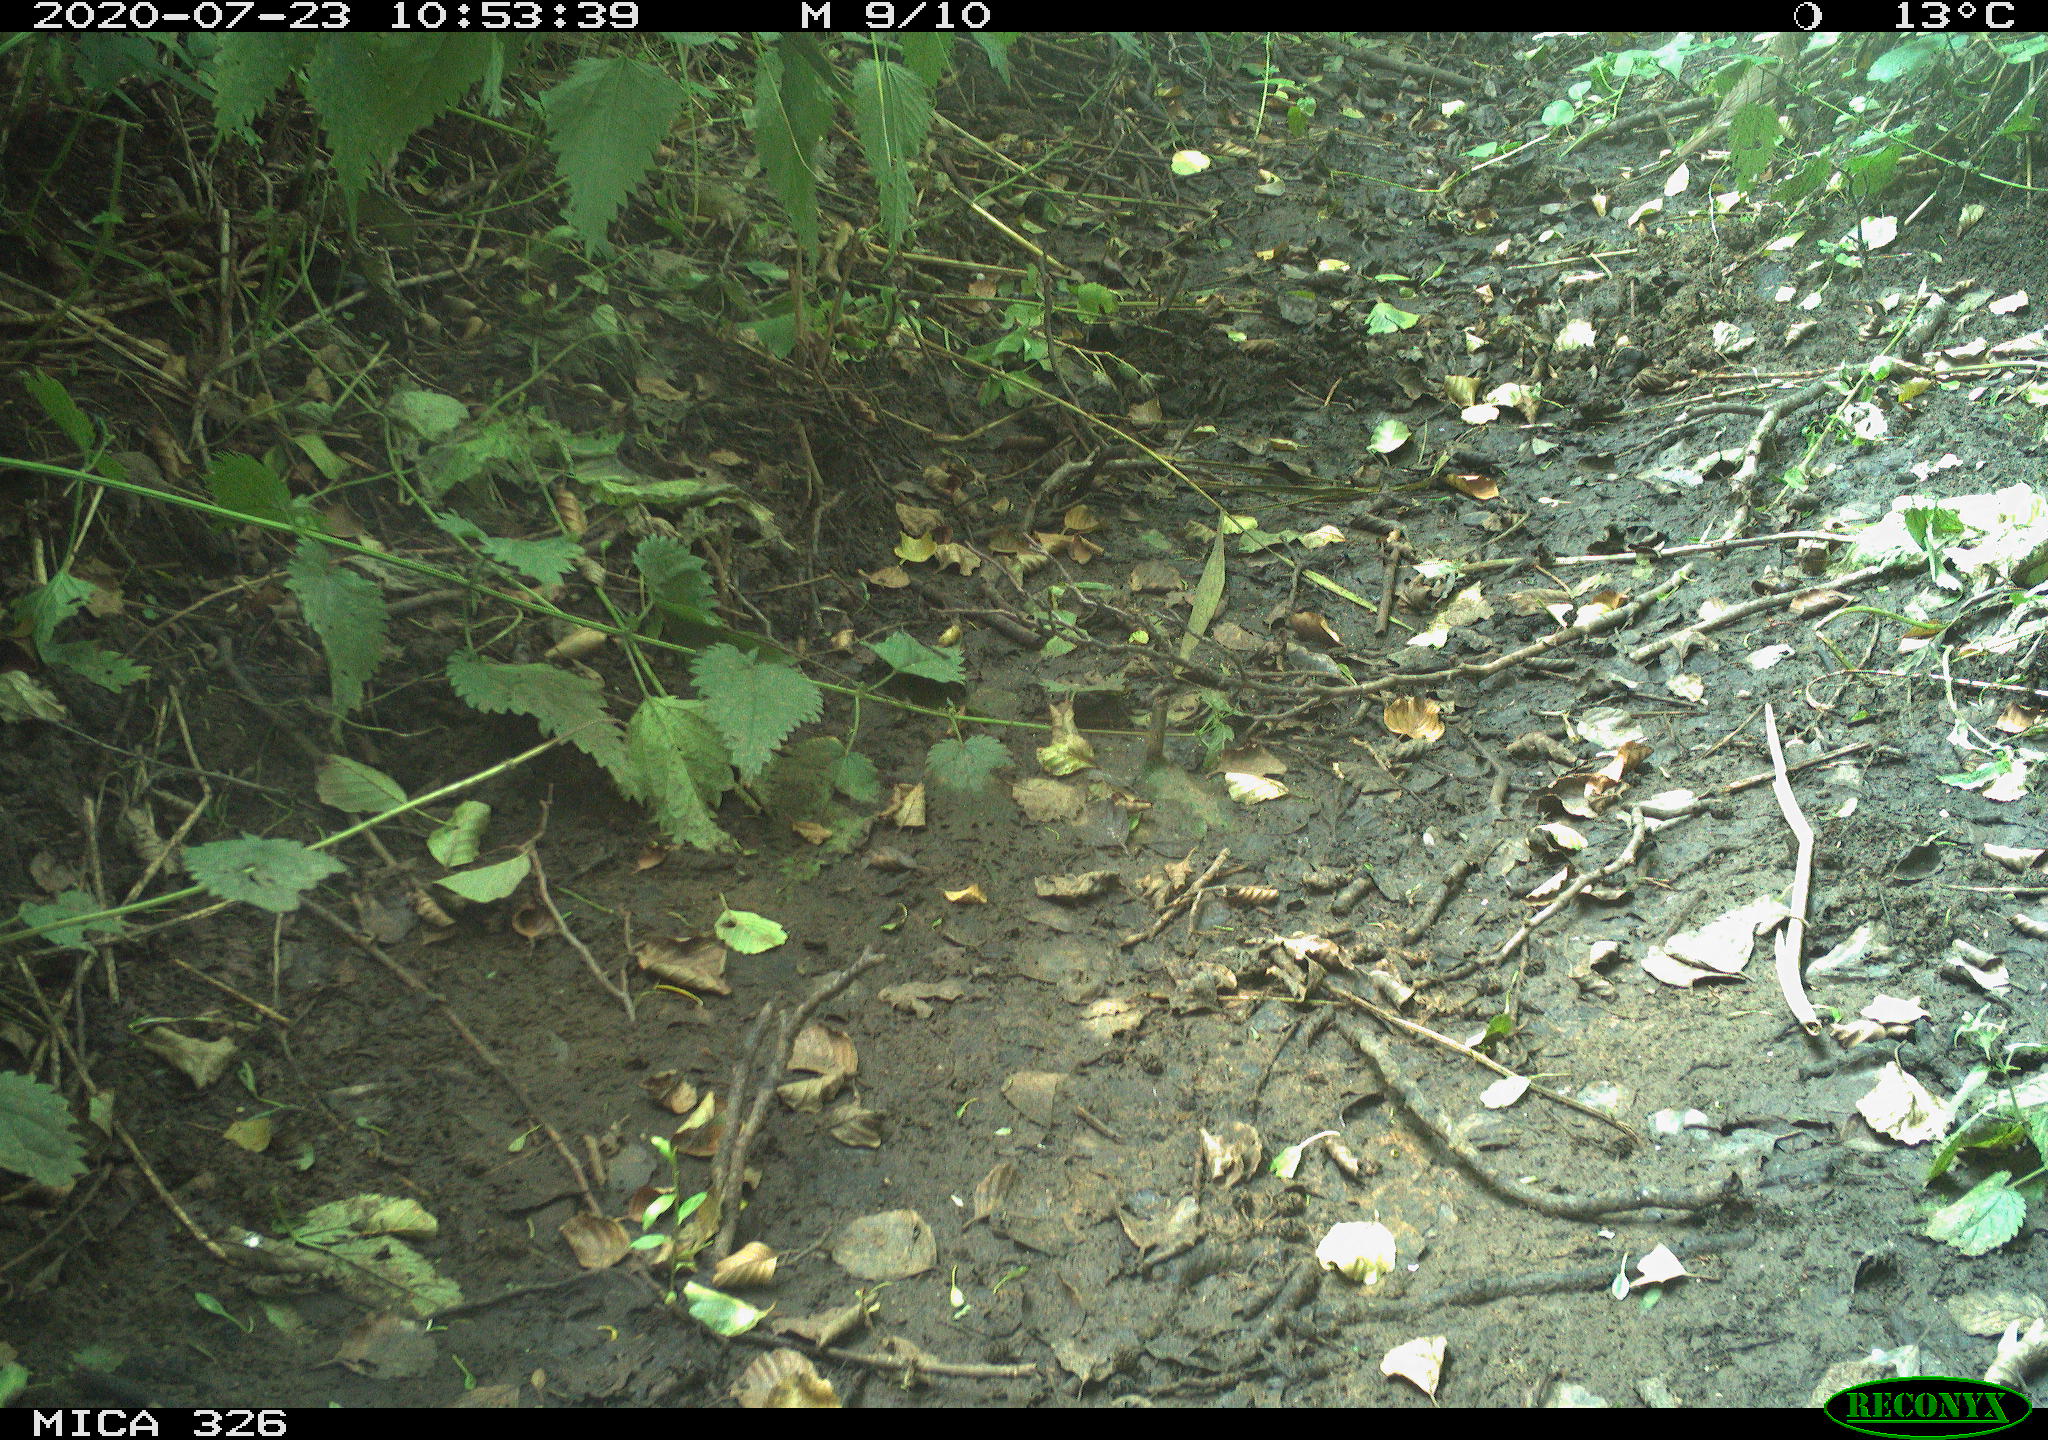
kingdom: Animalia
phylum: Chordata
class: Aves
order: Passeriformes
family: Turdidae
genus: Turdus
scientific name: Turdus philomelos
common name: Song thrush
